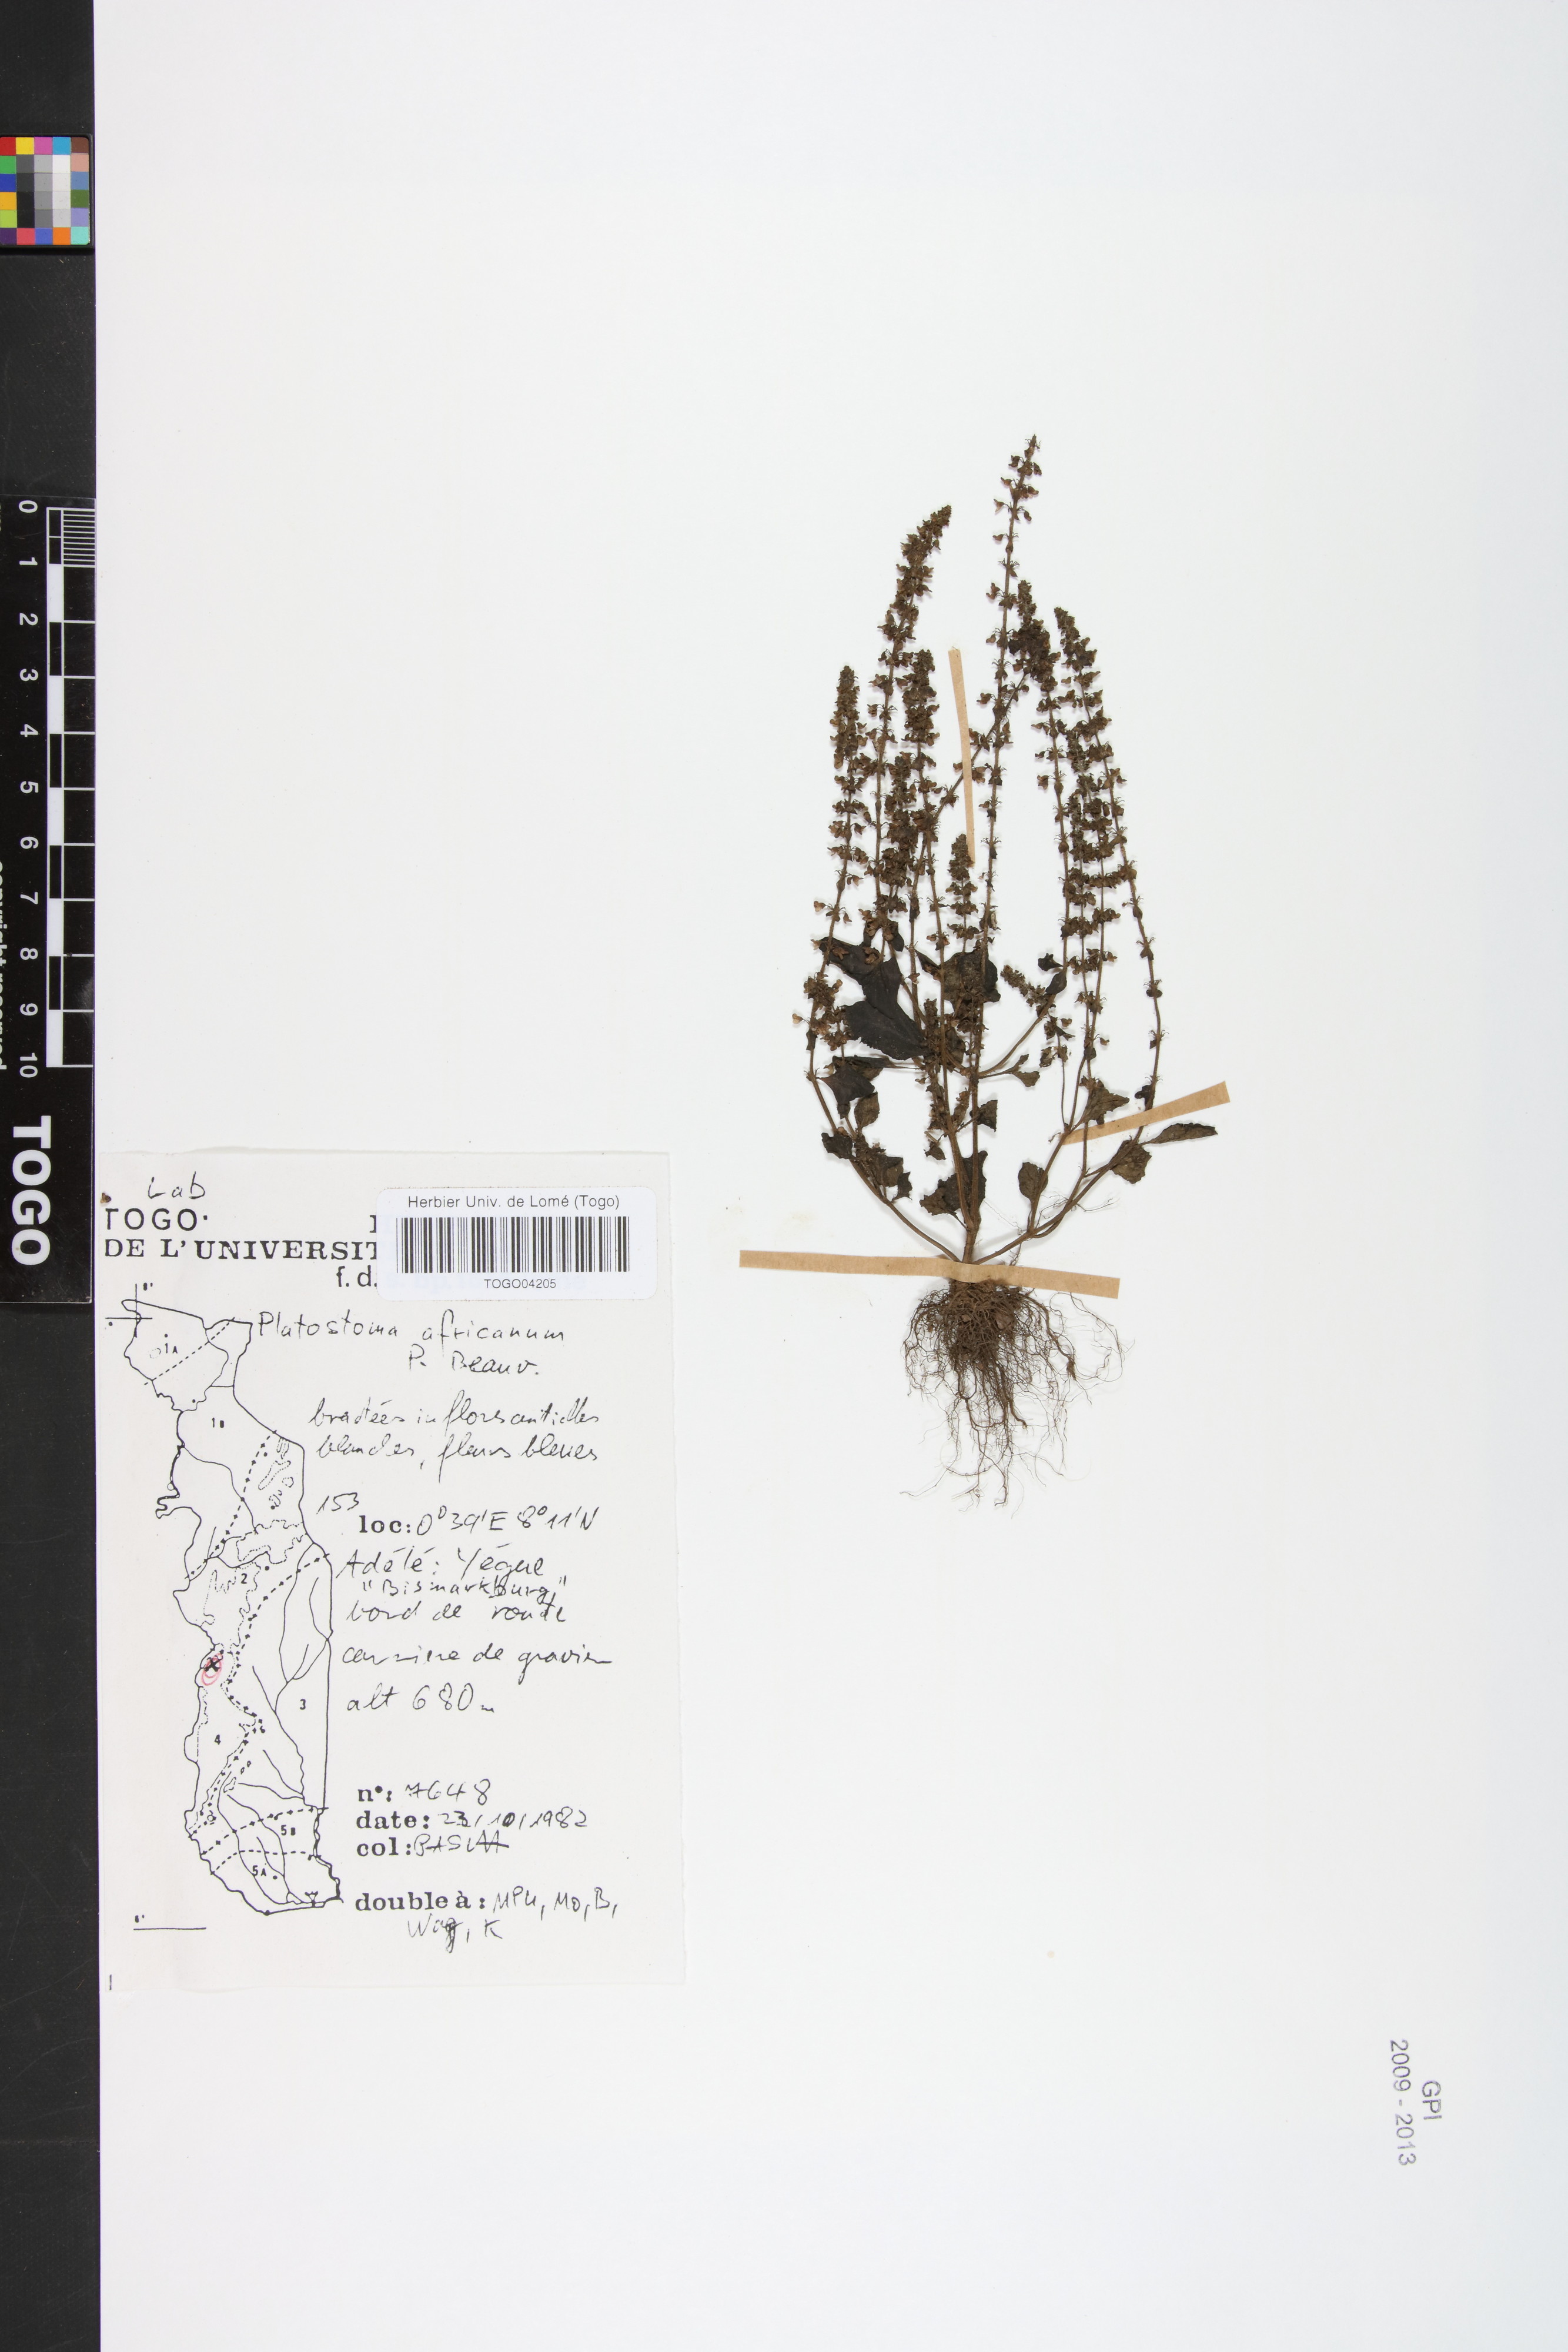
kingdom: Plantae
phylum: Tracheophyta
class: Magnoliopsida
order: Lamiales
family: Lamiaceae
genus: Platostoma
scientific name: Platostoma africanum
